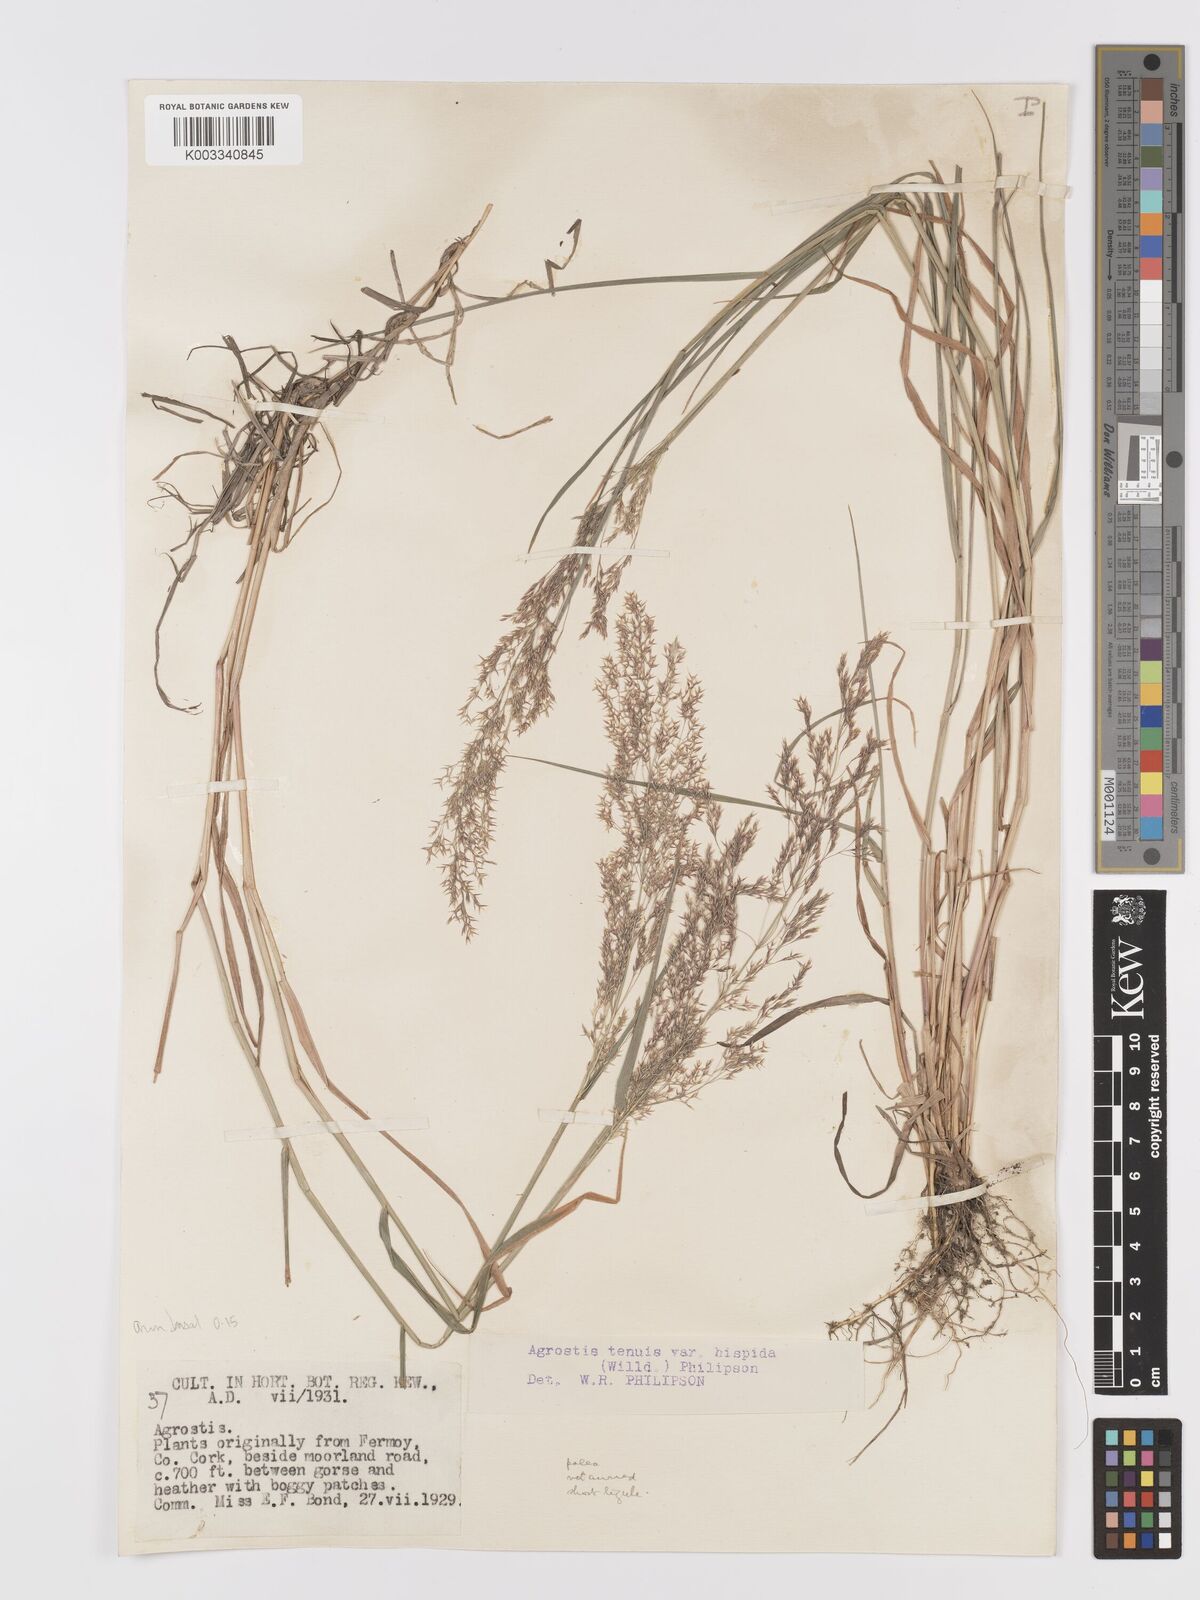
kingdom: Plantae
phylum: Tracheophyta
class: Liliopsida
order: Poales
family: Poaceae
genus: Agrostis
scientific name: Agrostis capillaris
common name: Colonial bentgrass
